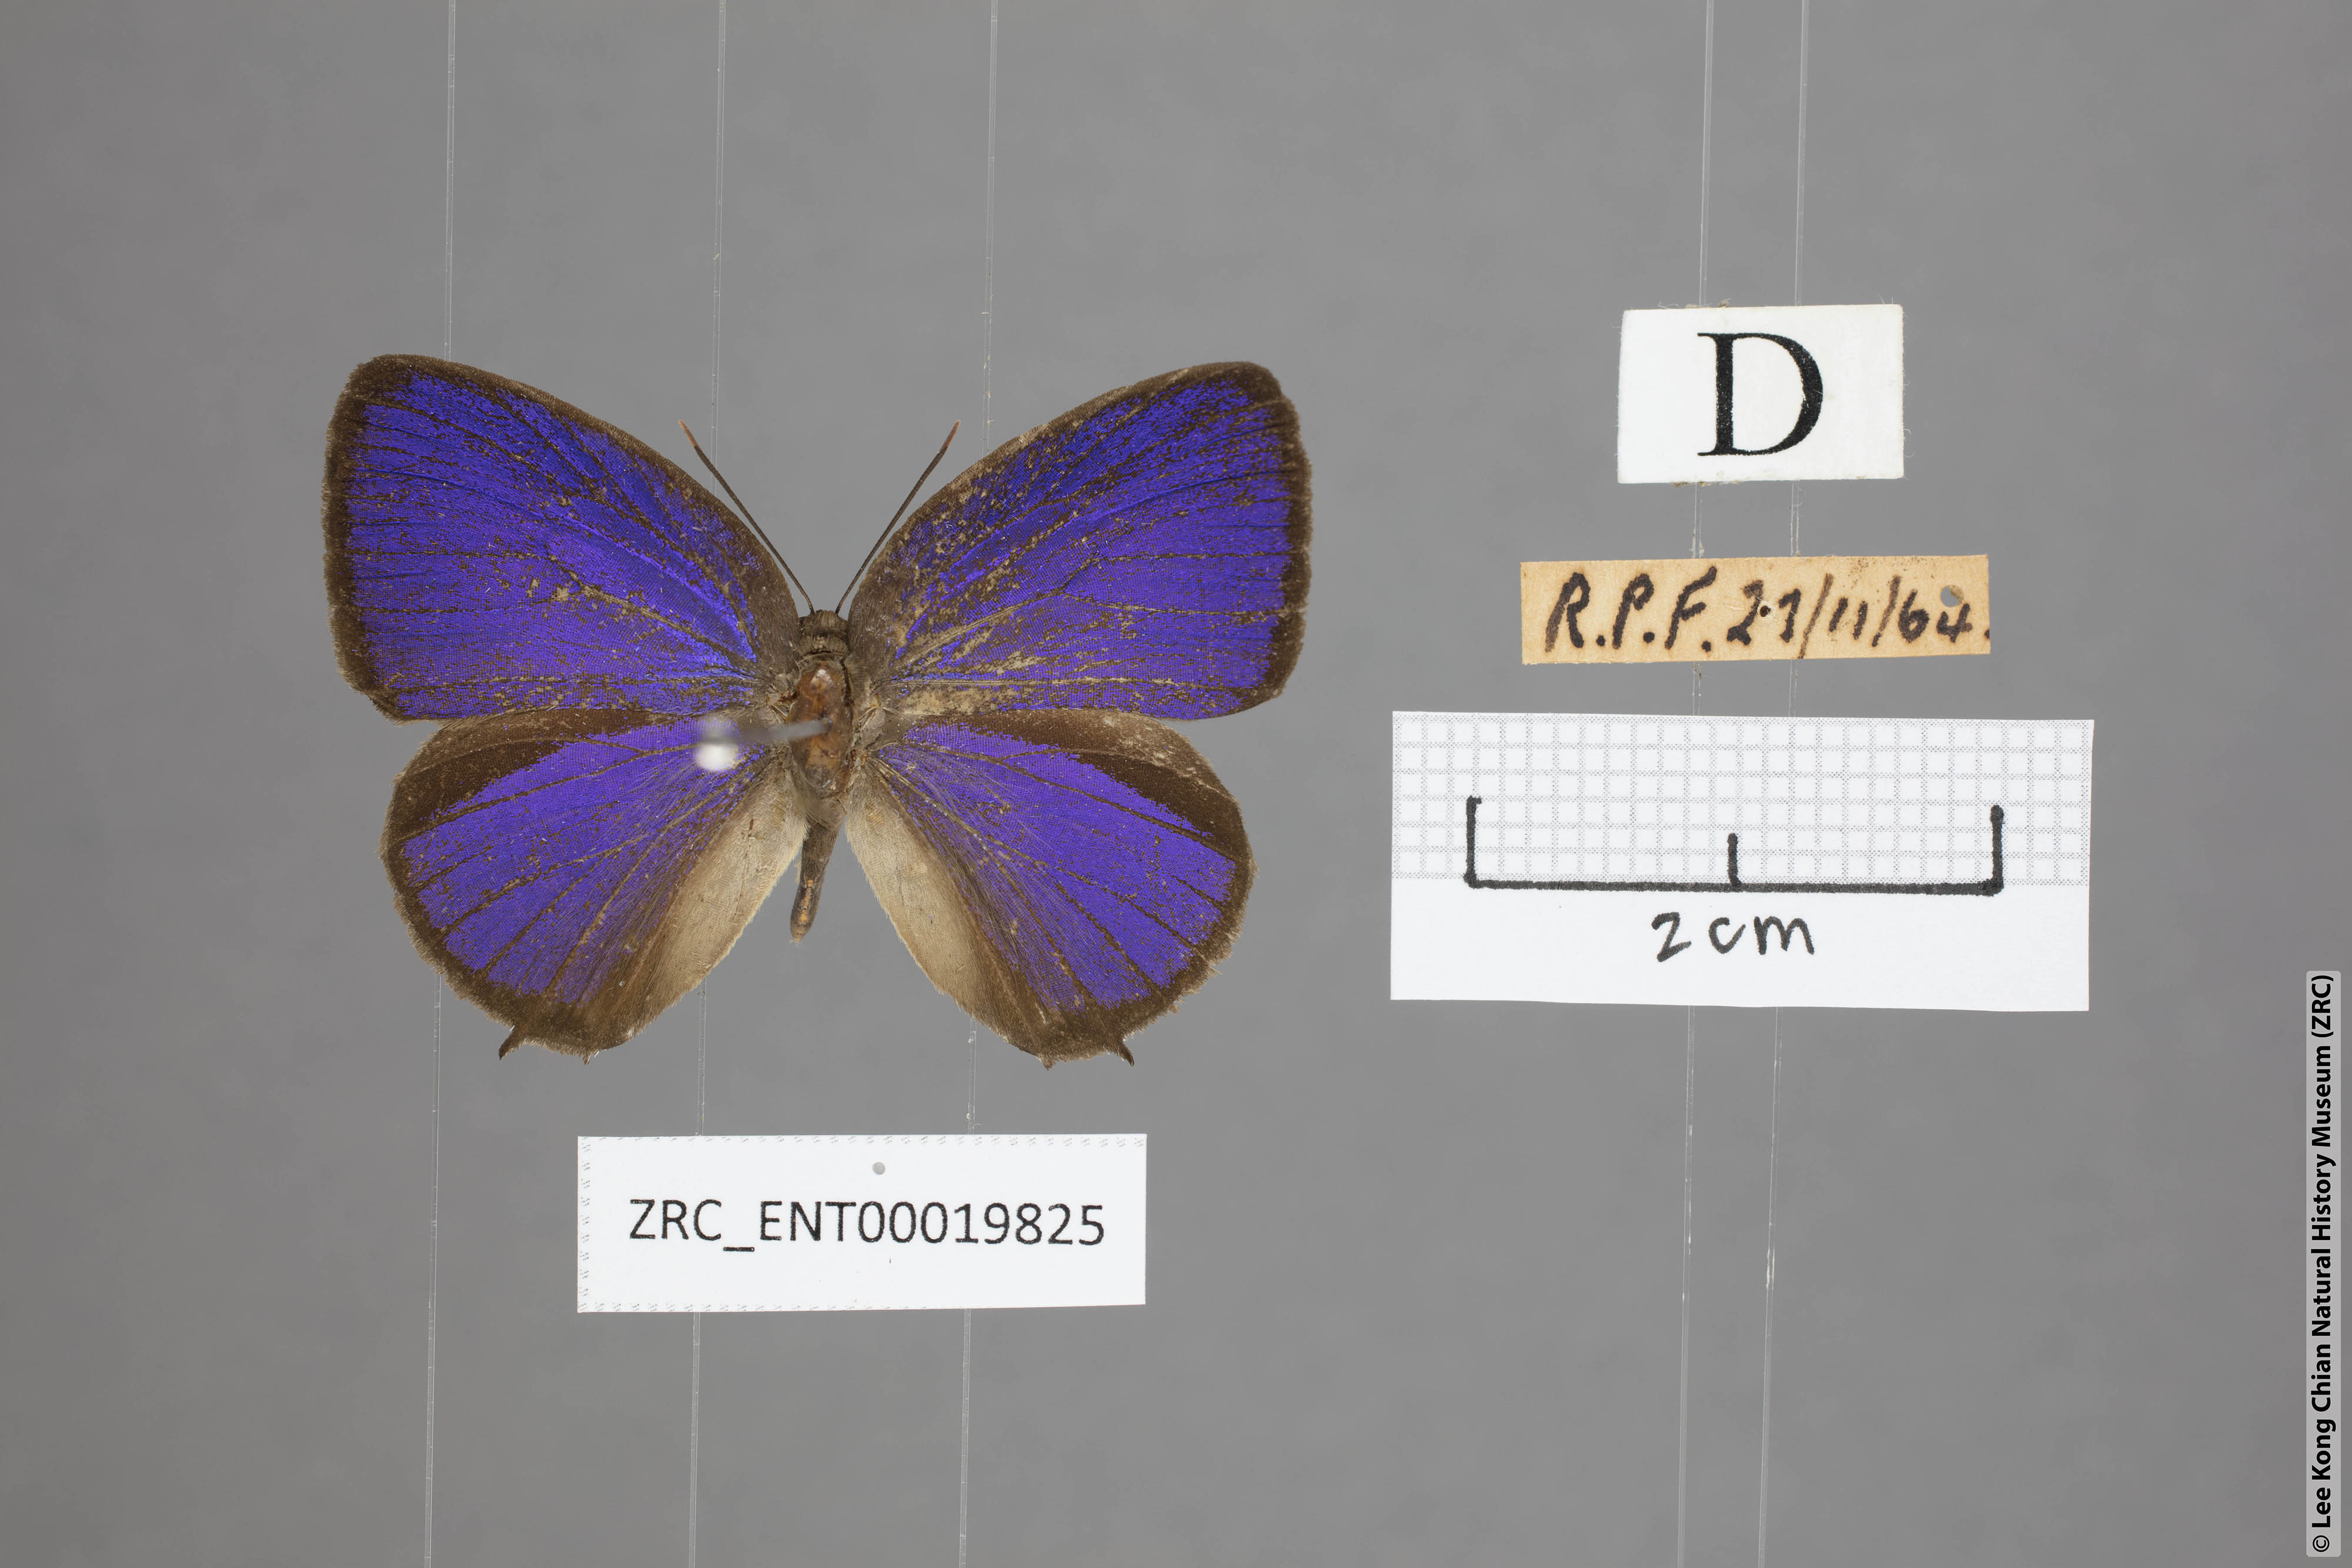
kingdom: Animalia
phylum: Arthropoda
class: Insecta
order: Lepidoptera
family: Lycaenidae
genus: Arhopala
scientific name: Arhopala pseudomuta
